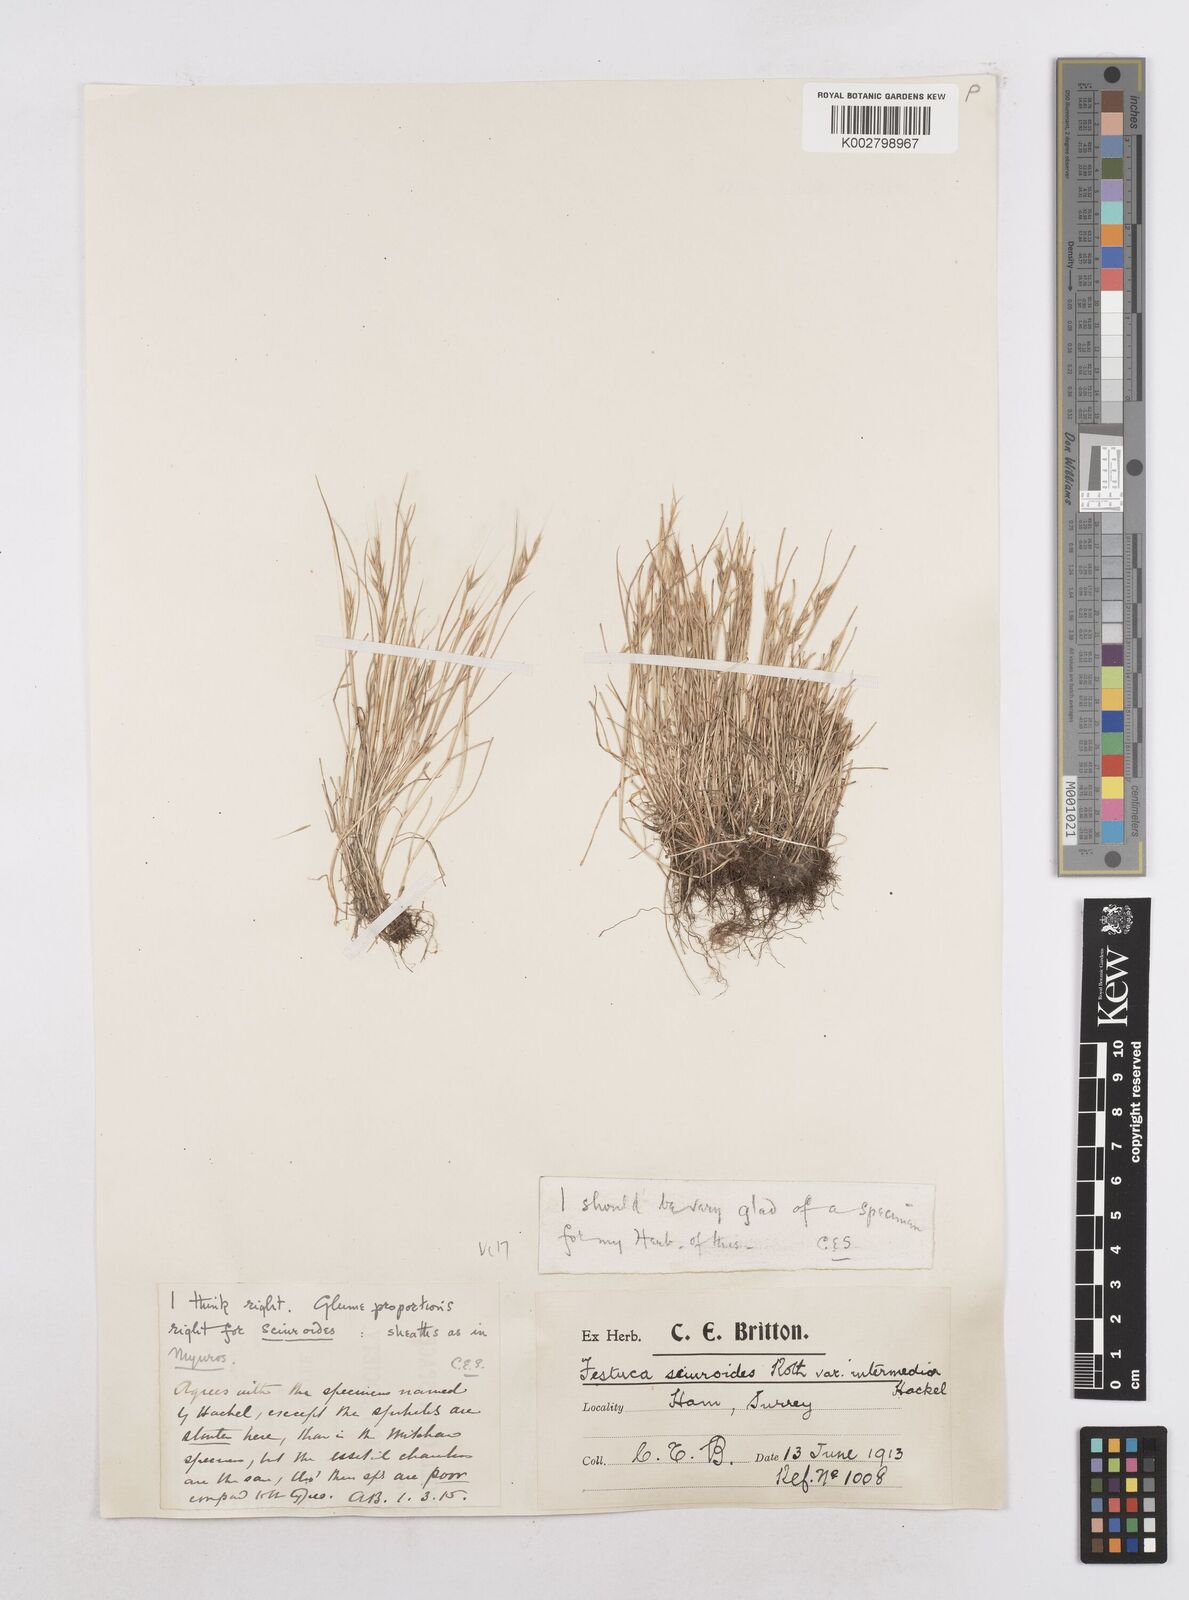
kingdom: Plantae
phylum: Tracheophyta
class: Liliopsida
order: Poales
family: Poaceae
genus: Festuca
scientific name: Festuca bromoides
